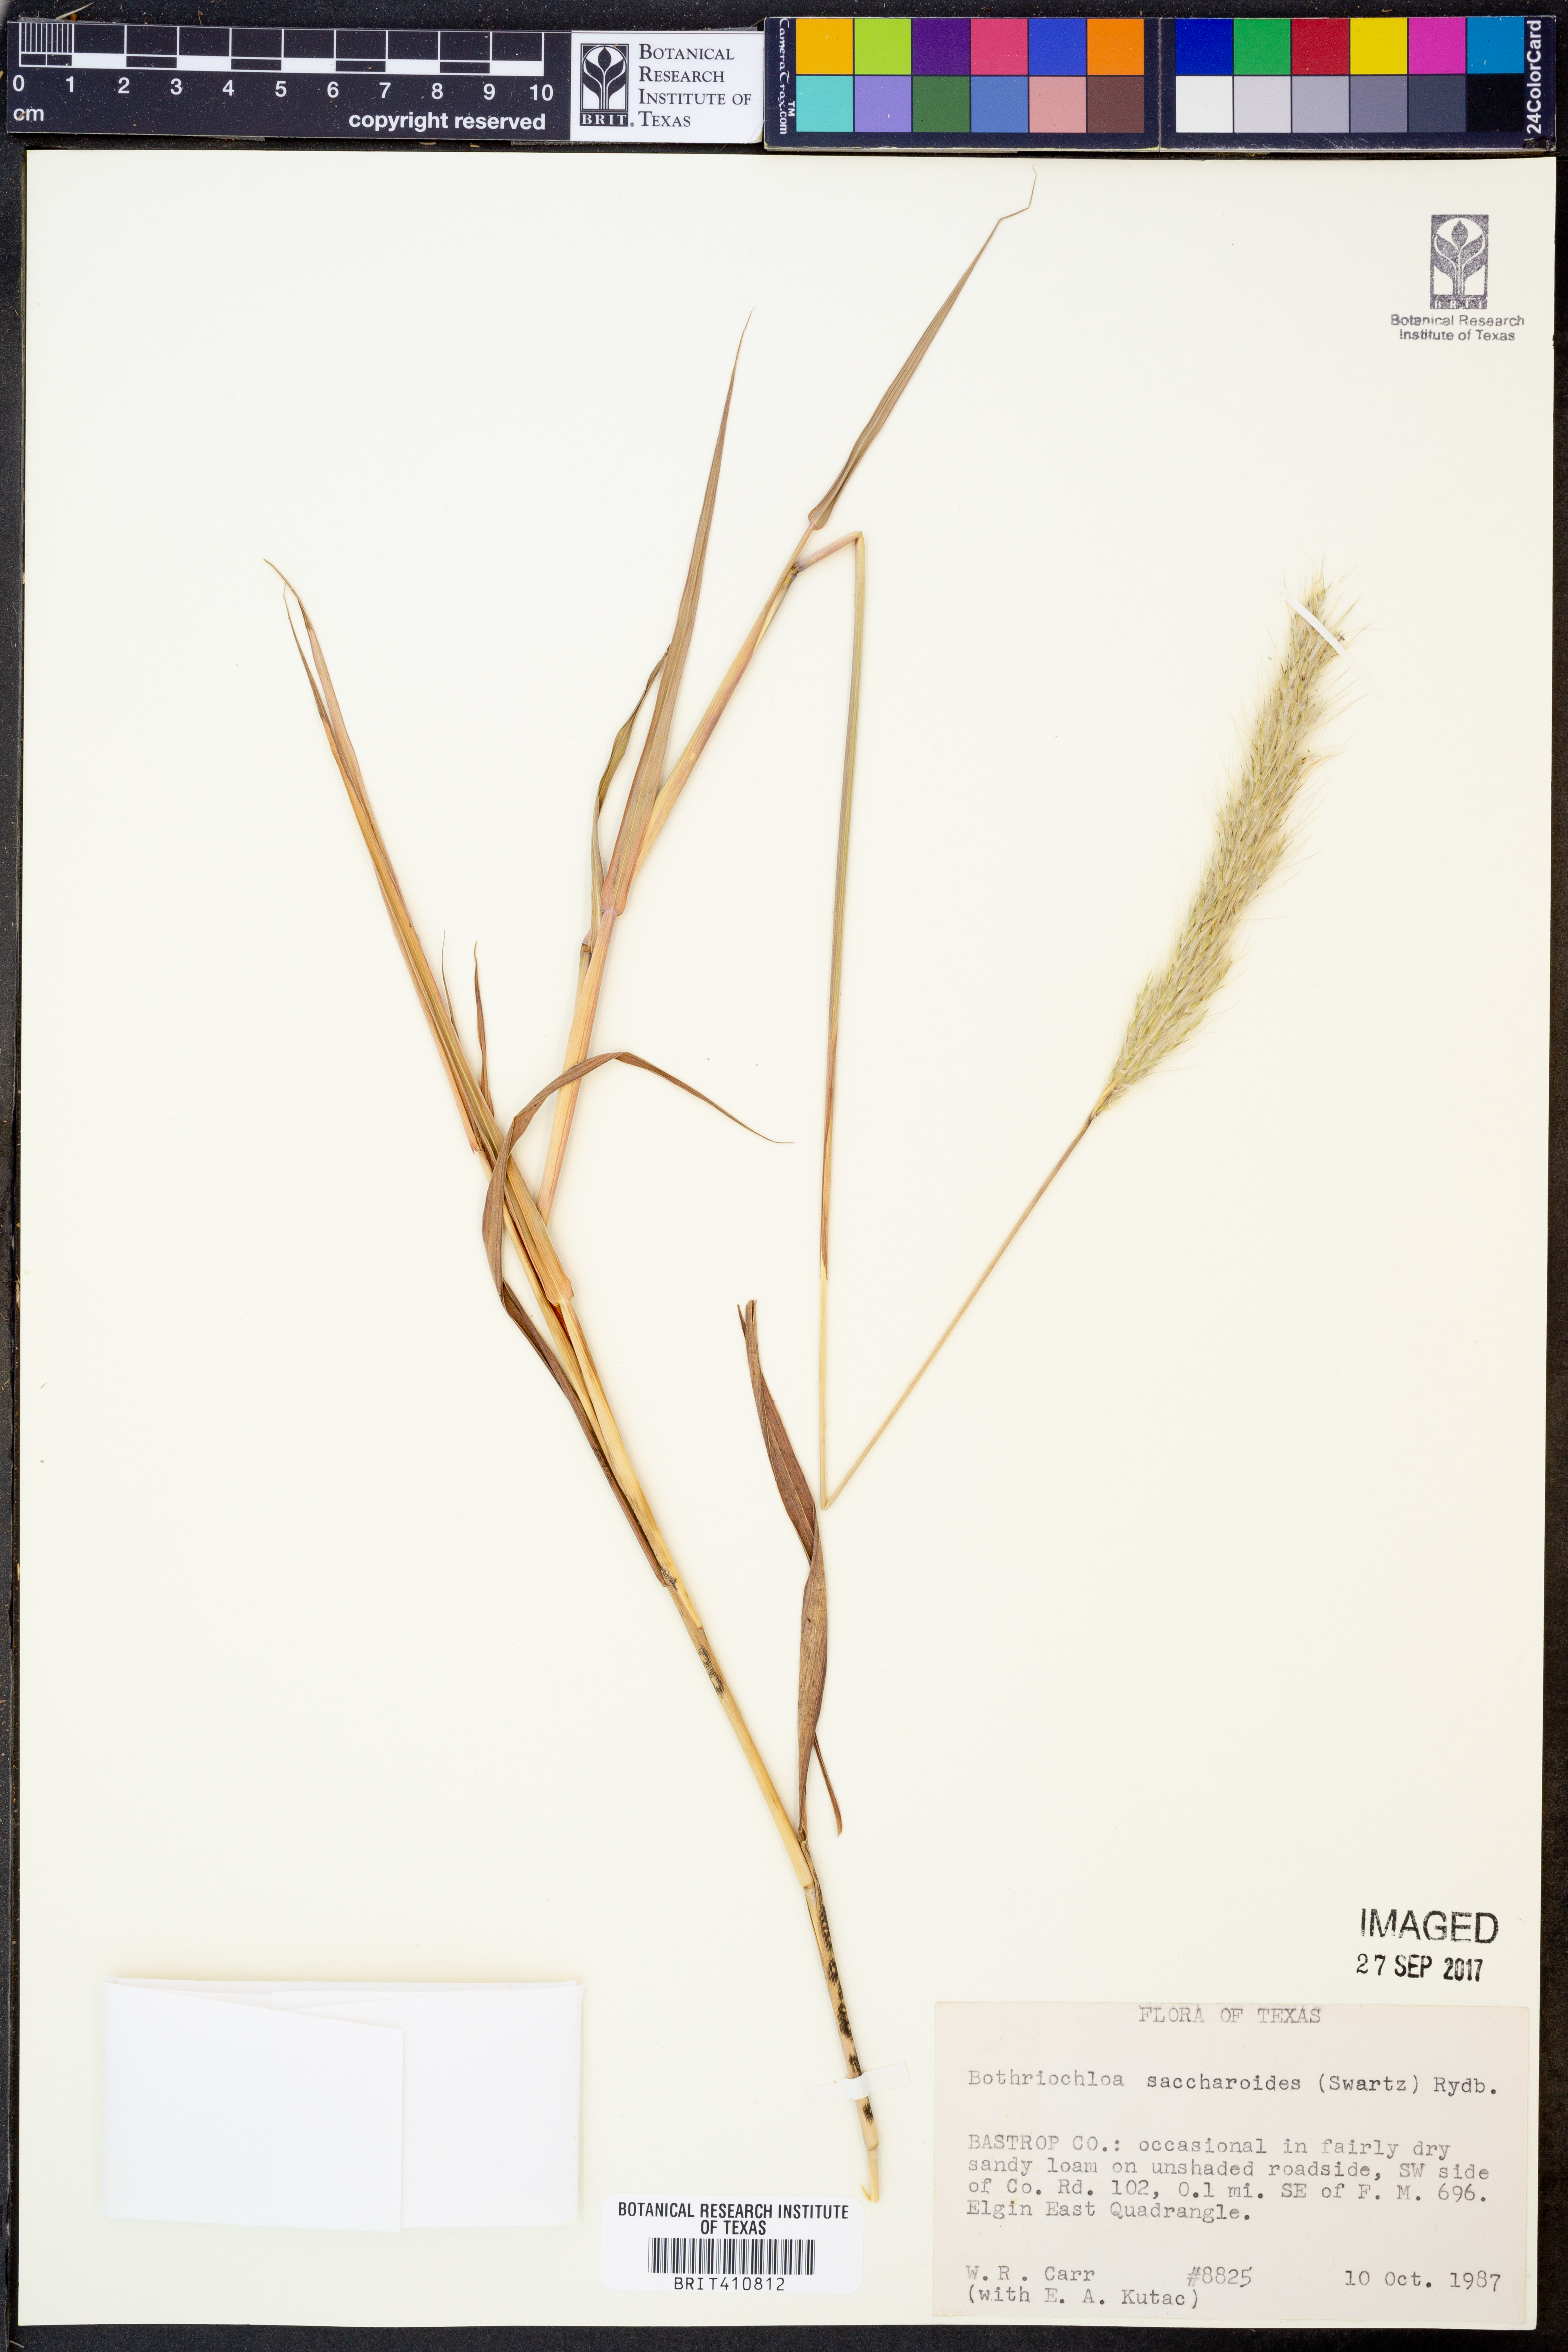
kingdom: Plantae
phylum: Tracheophyta
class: Liliopsida
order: Poales
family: Poaceae
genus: Bothriochloa
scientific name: Bothriochloa saccharoides
